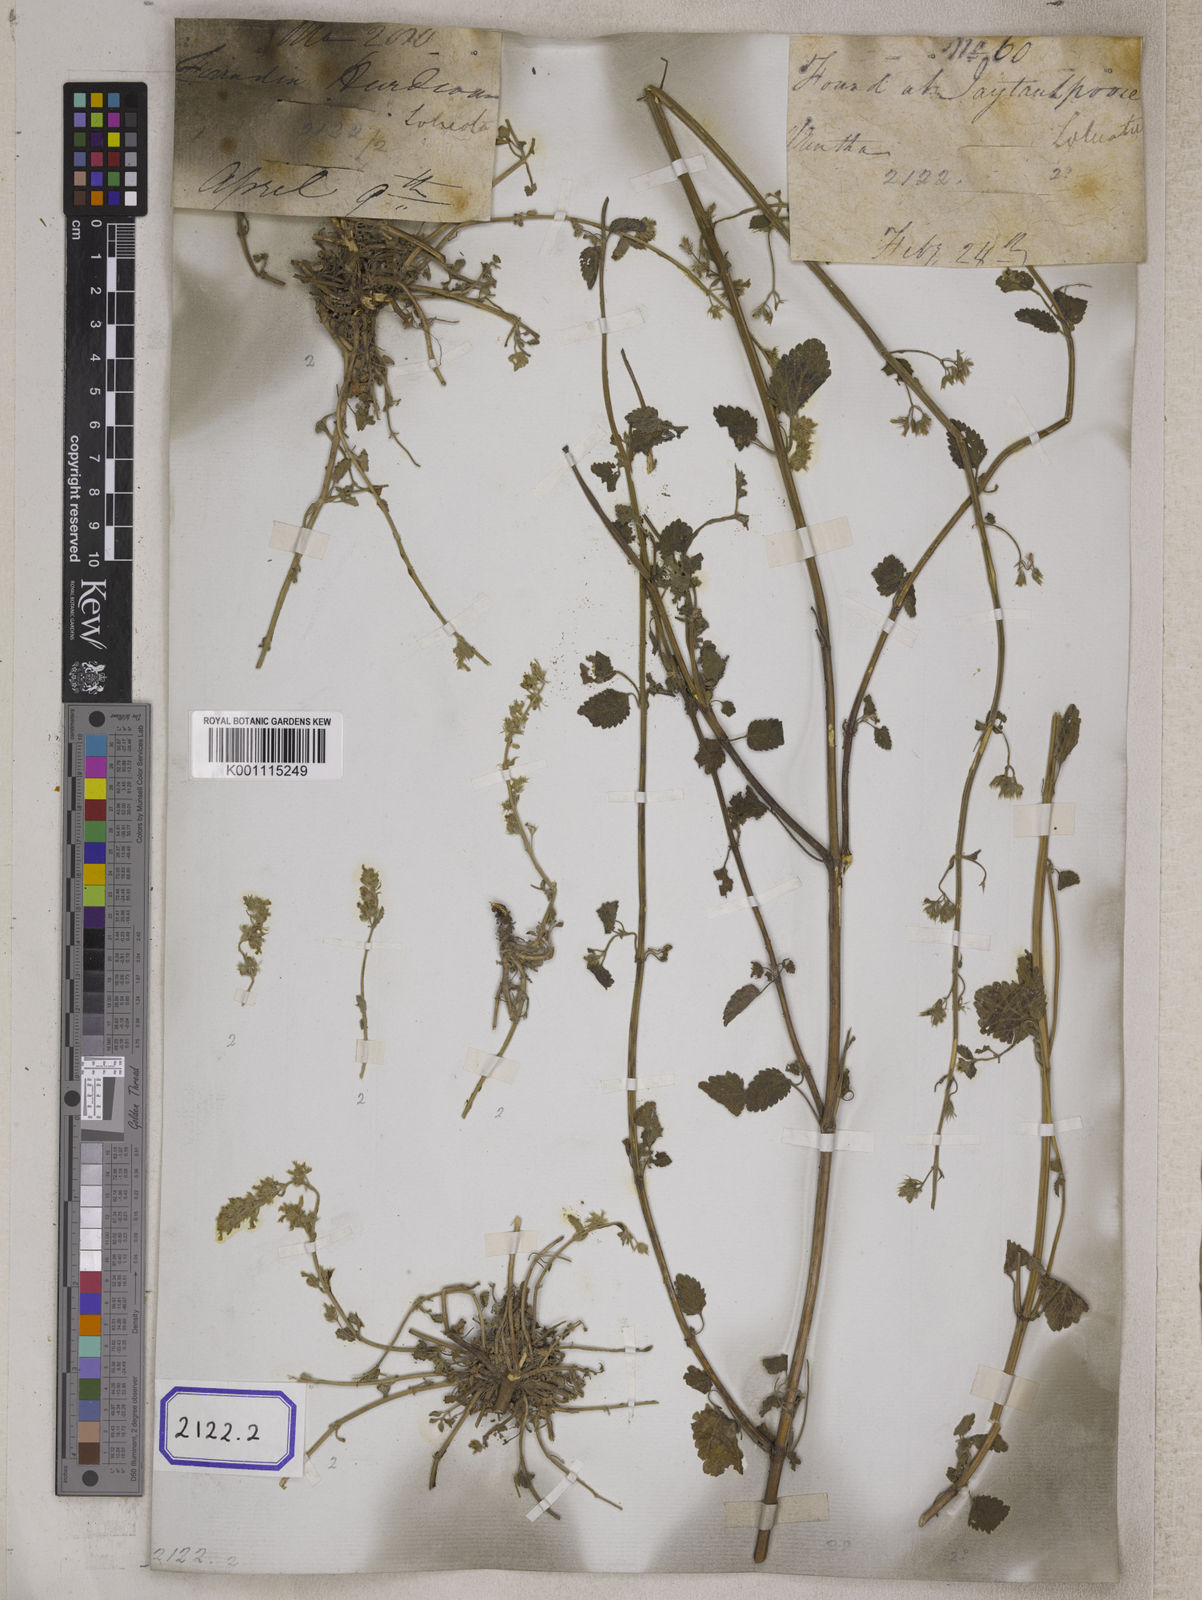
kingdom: Plantae
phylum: Tracheophyta
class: Magnoliopsida
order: Lamiales
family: Lamiaceae
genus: Nepeta
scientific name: Nepeta
